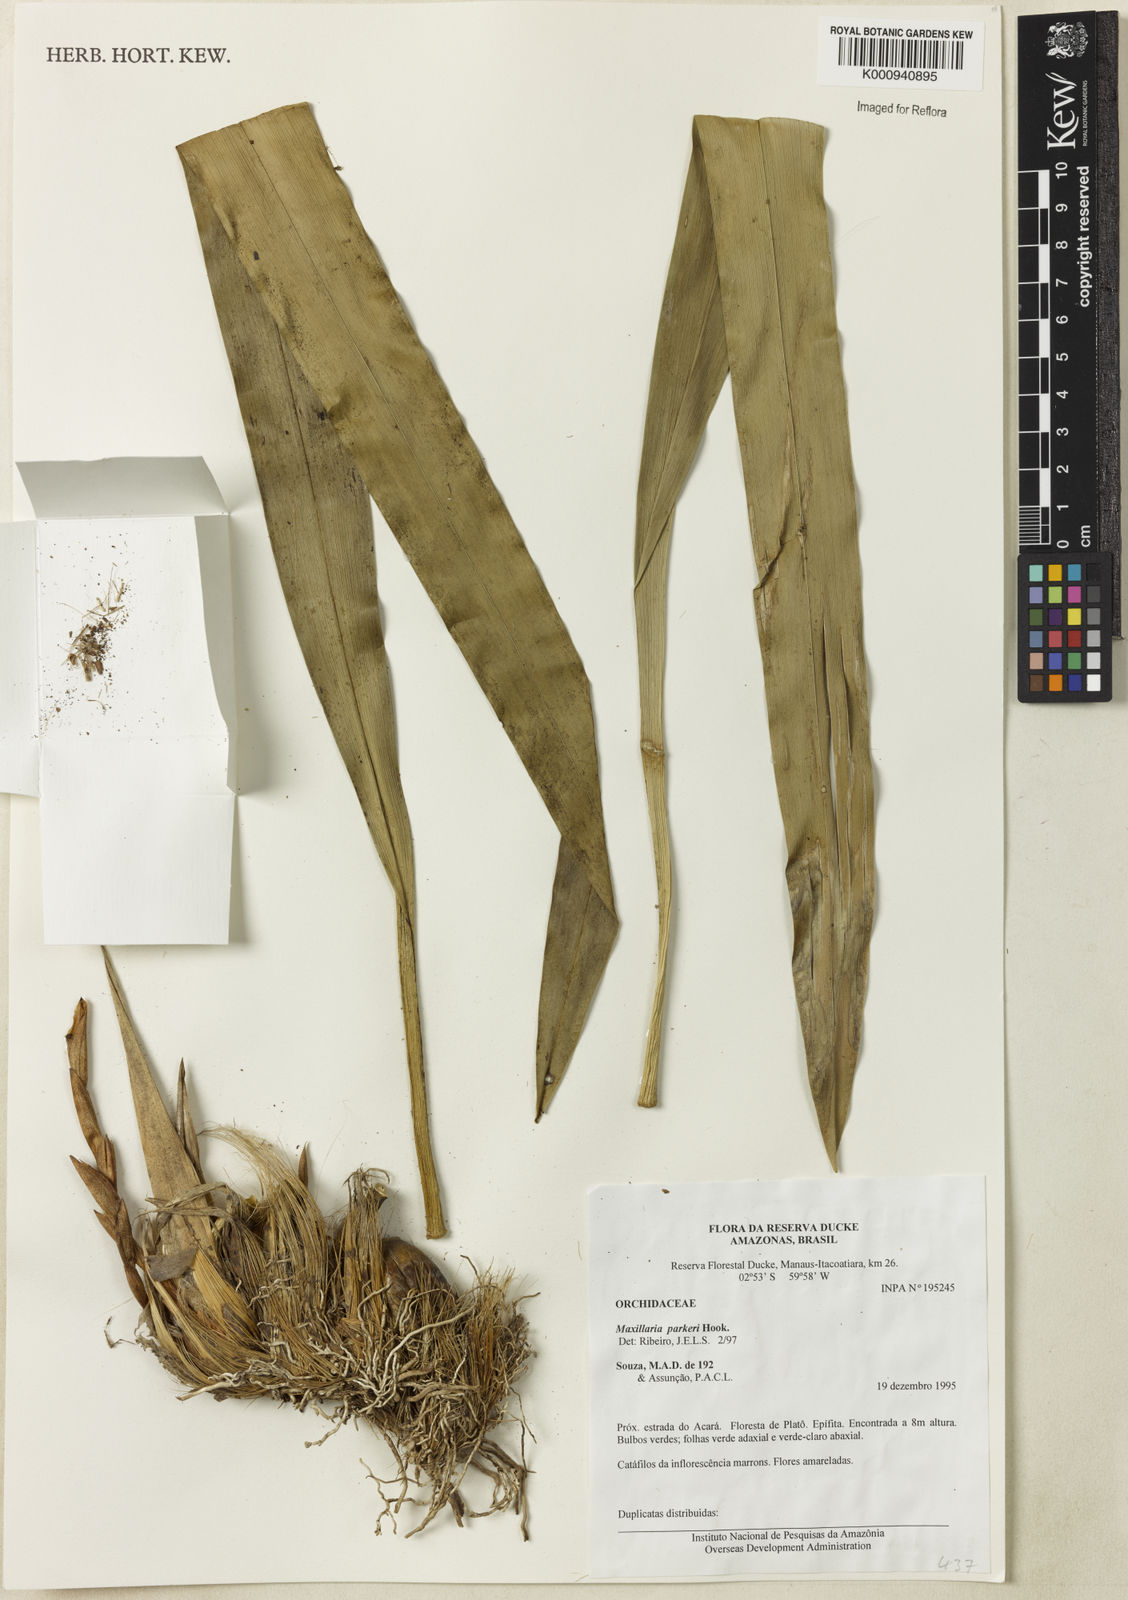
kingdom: Plantae
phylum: Tracheophyta
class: Liliopsida
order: Asparagales
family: Orchidaceae
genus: Maxillaria
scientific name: Maxillaria parkeri
